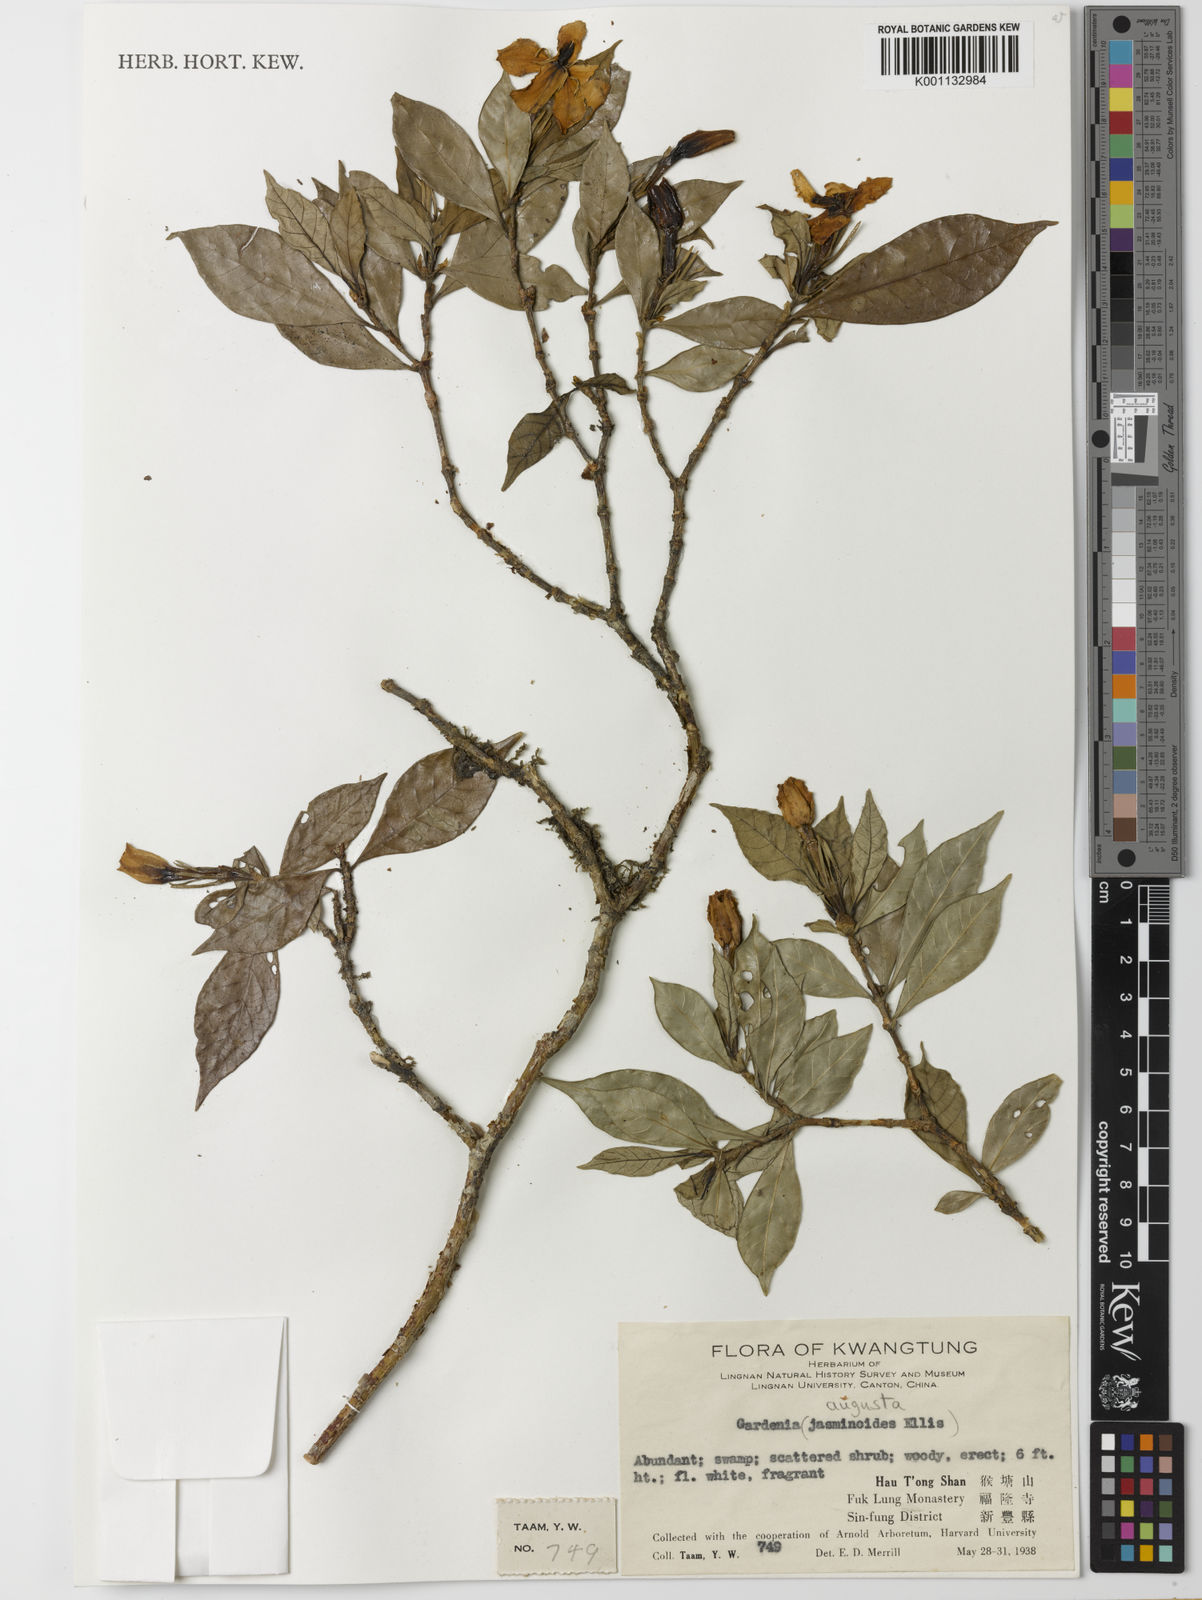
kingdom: Plantae
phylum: Tracheophyta
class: Magnoliopsida
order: Gentianales
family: Rubiaceae
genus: Gardenia
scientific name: Gardenia jasminoides
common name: Cape-jasmine
